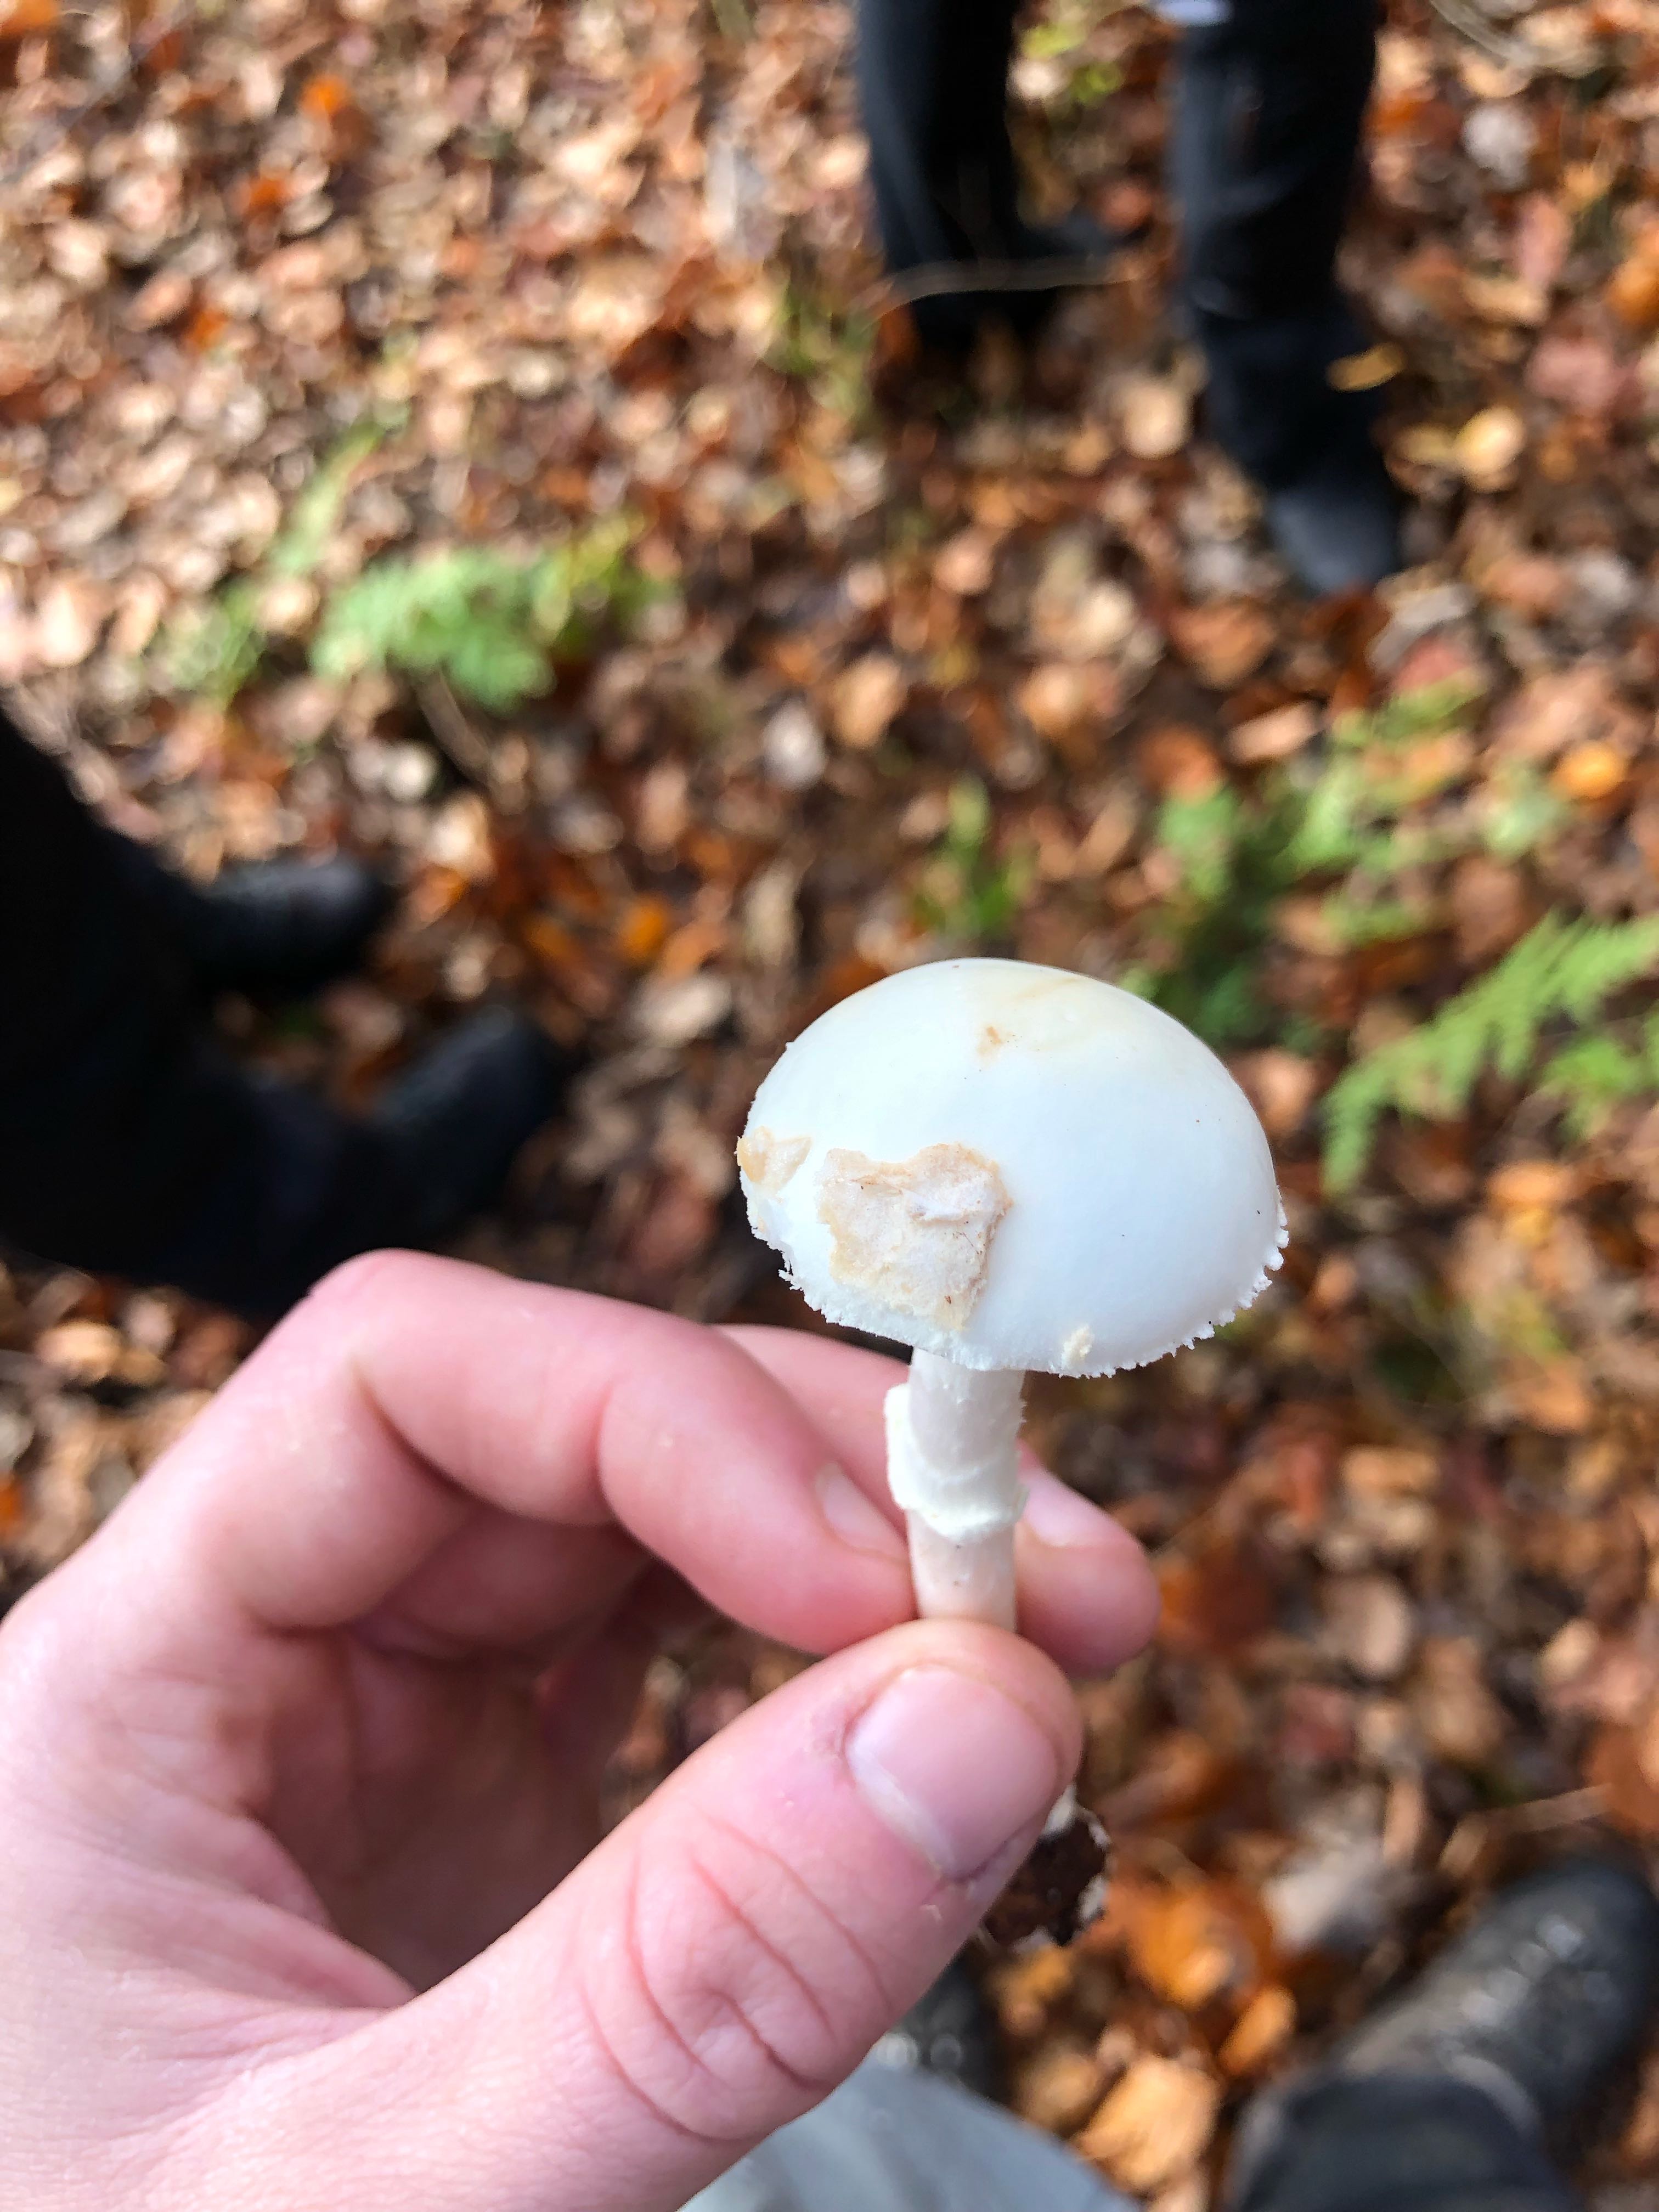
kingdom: Fungi
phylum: Basidiomycota
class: Agaricomycetes
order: Agaricales
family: Amanitaceae
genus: Amanita
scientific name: Amanita citrina
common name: kugleknoldet fluesvamp
